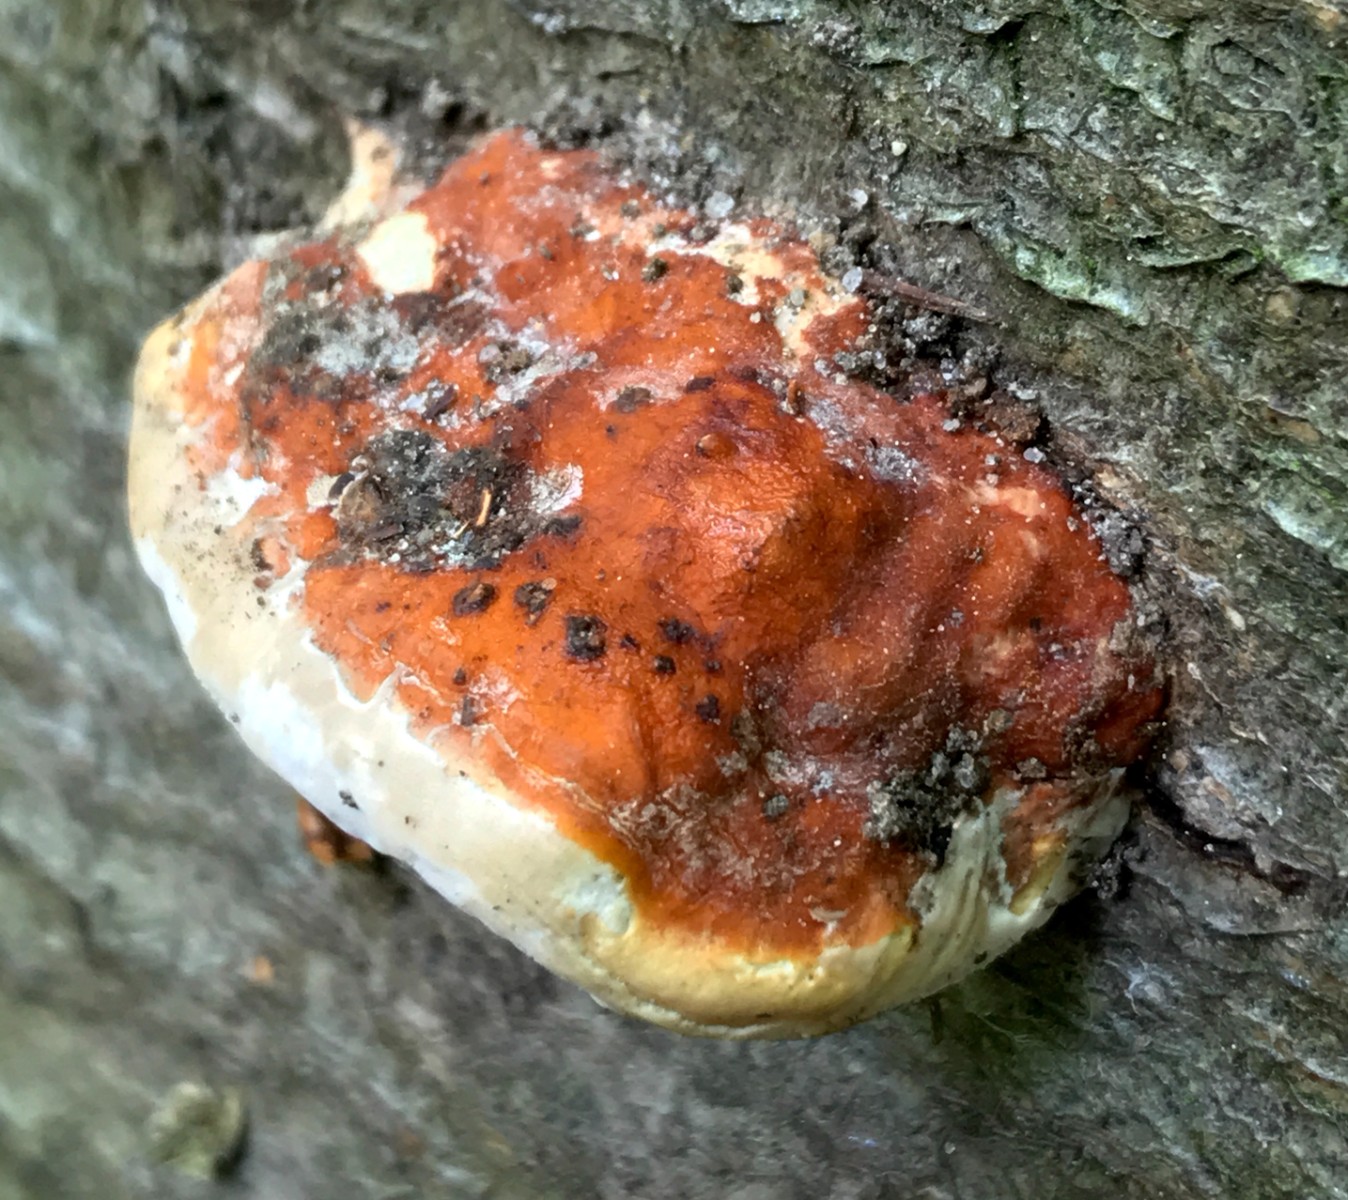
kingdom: Fungi
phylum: Basidiomycota
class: Agaricomycetes
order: Polyporales
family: Fomitopsidaceae
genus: Fomitopsis
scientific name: Fomitopsis pinicola
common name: randbæltet hovporesvamp
